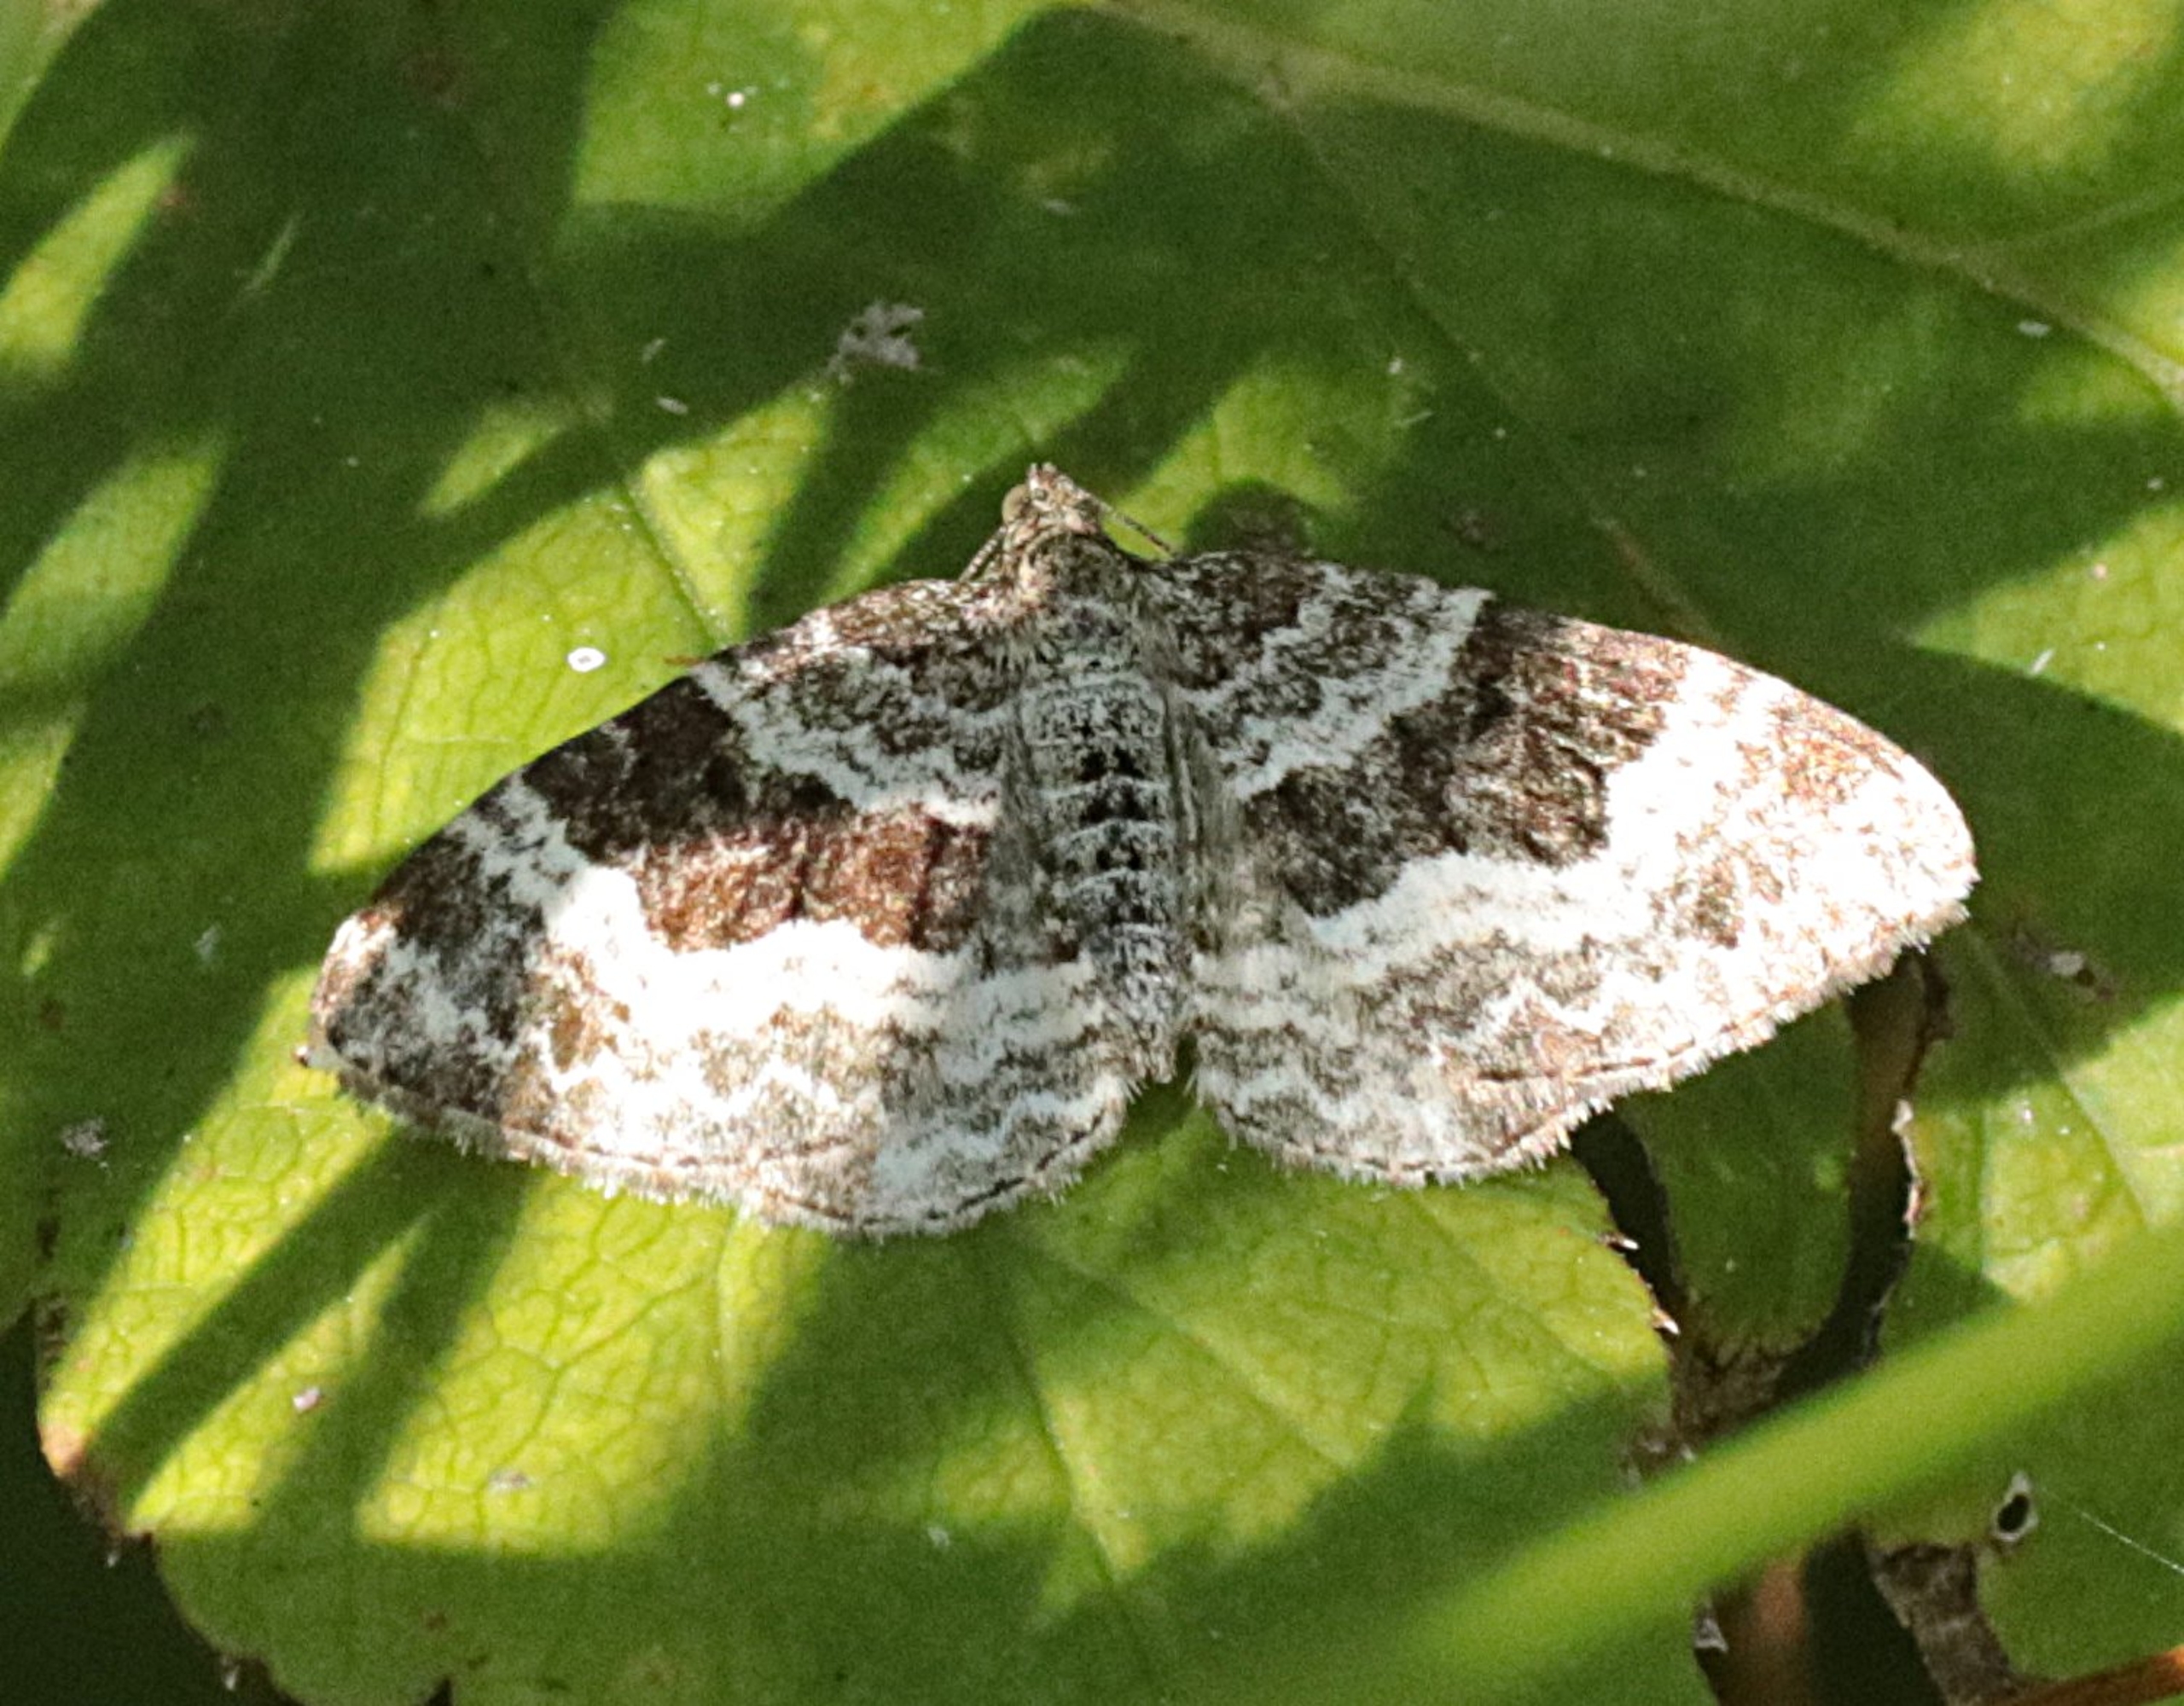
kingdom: Animalia
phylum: Arthropoda
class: Insecta
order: Lepidoptera
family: Geometridae
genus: Epirrhoe
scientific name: Epirrhoe alternata
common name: Almindelig bladmåler
